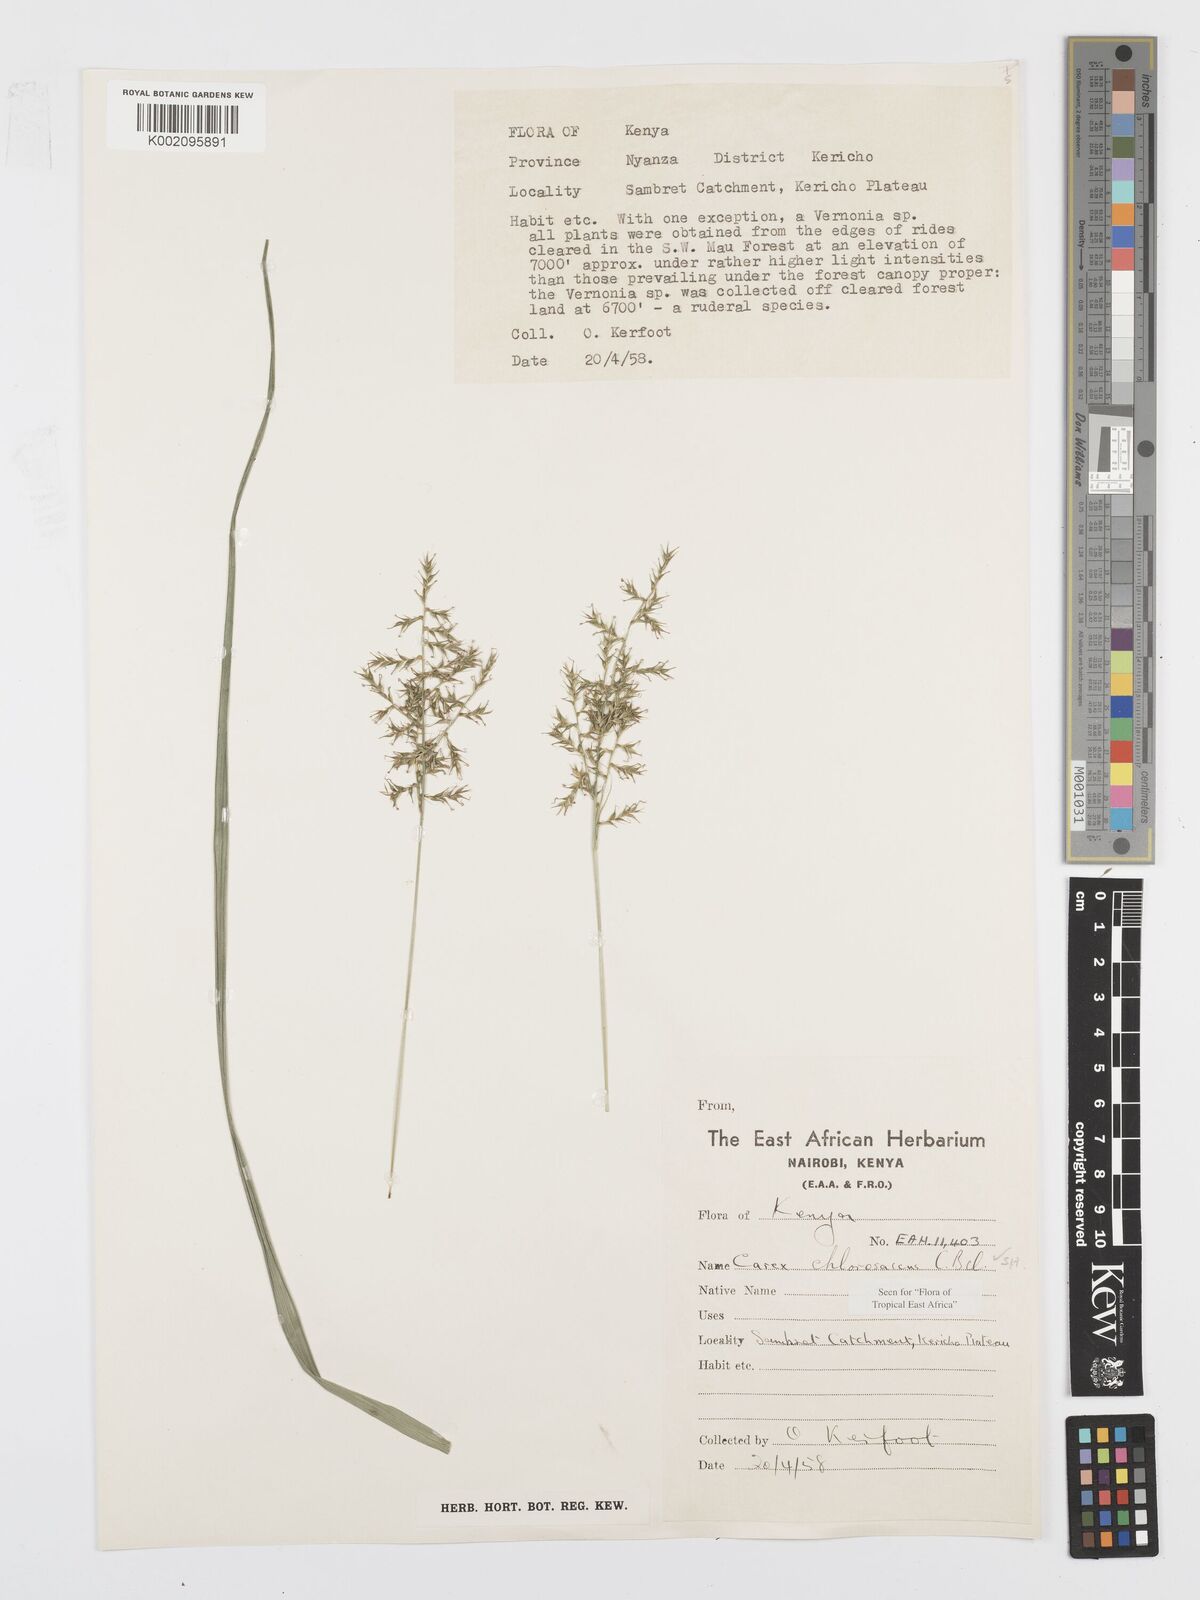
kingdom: Plantae
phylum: Tracheophyta
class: Liliopsida
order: Poales
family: Cyperaceae
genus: Carex
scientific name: Carex chlorosaccus
